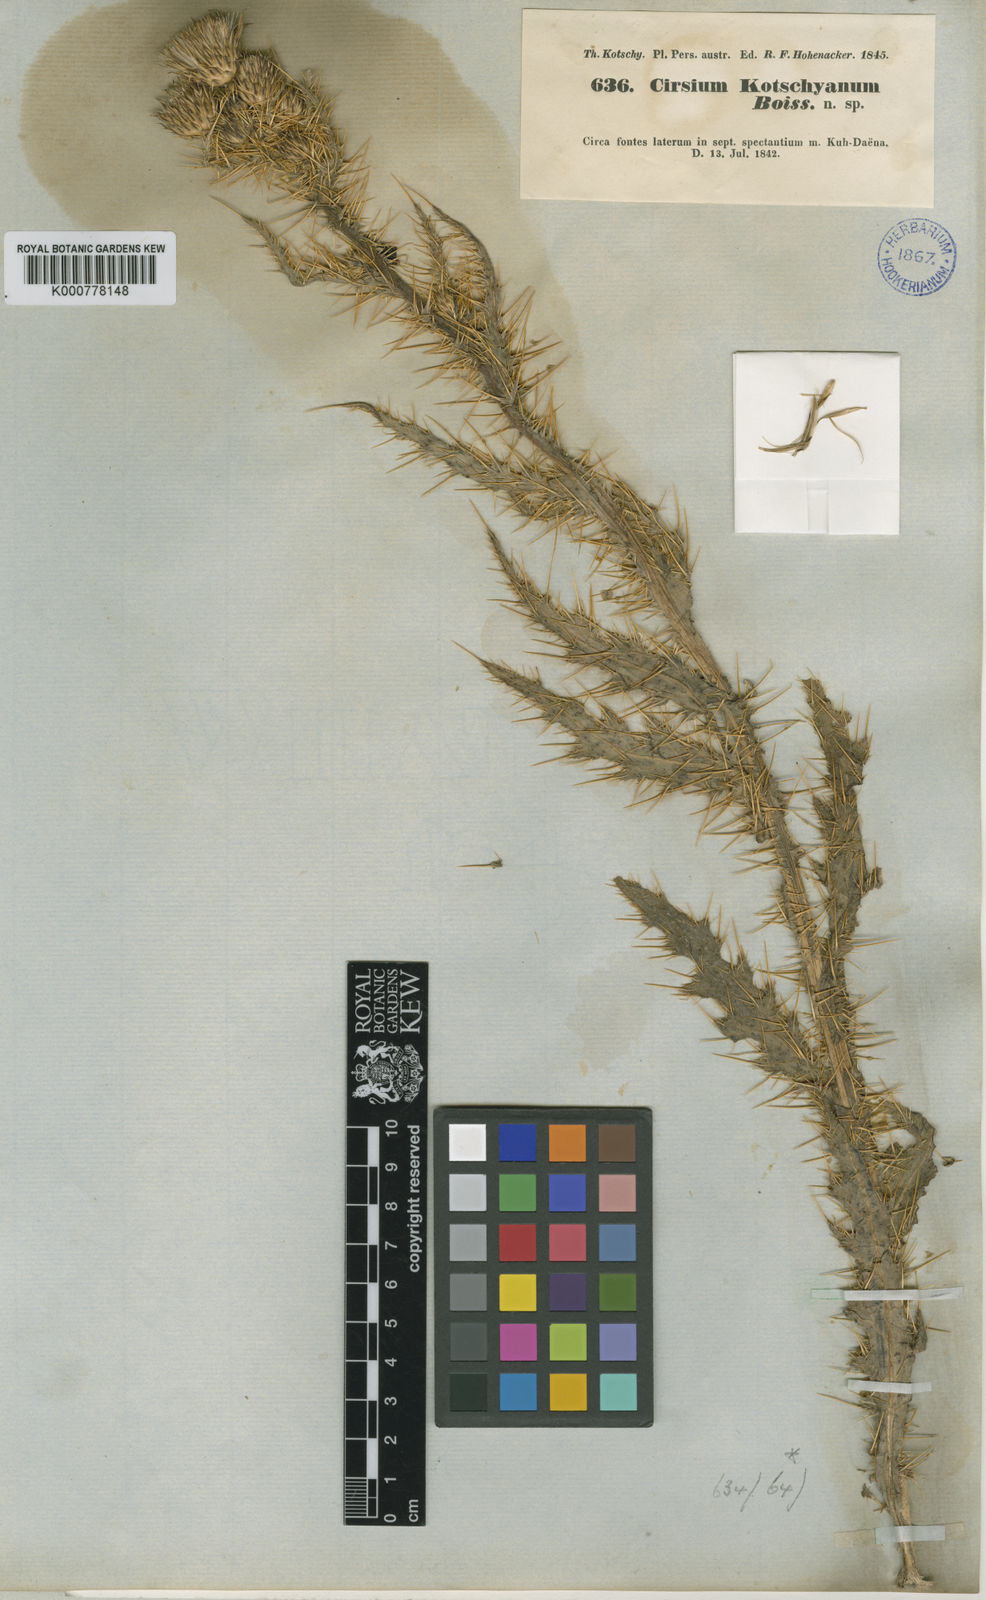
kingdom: Plantae
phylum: Tracheophyta
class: Magnoliopsida
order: Asterales
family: Asteraceae
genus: Cirsium
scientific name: Cirsium libanoticum
